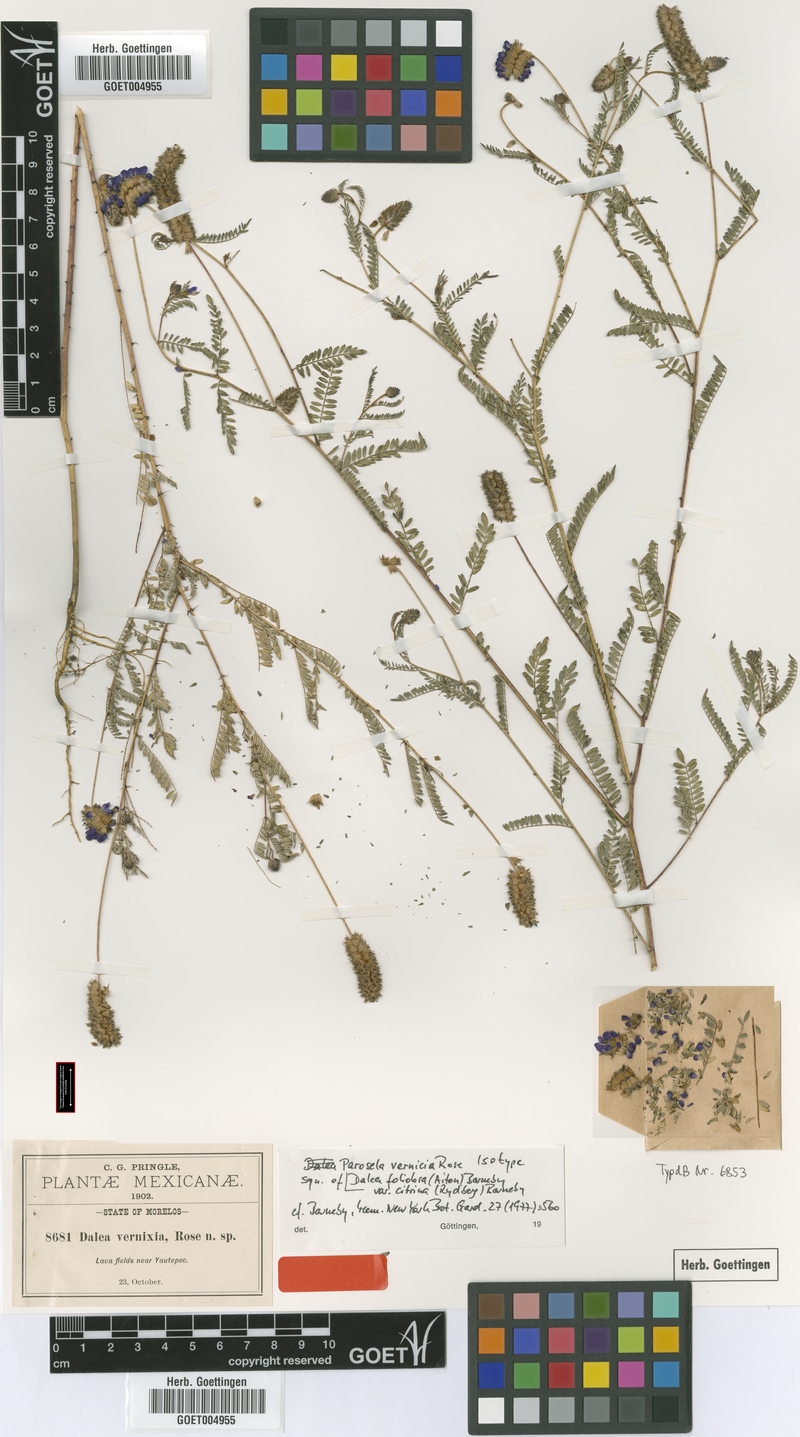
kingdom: Plantae
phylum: Tracheophyta
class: Magnoliopsida
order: Fabales
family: Fabaceae
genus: Dalea
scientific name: Dalea foliolosa
